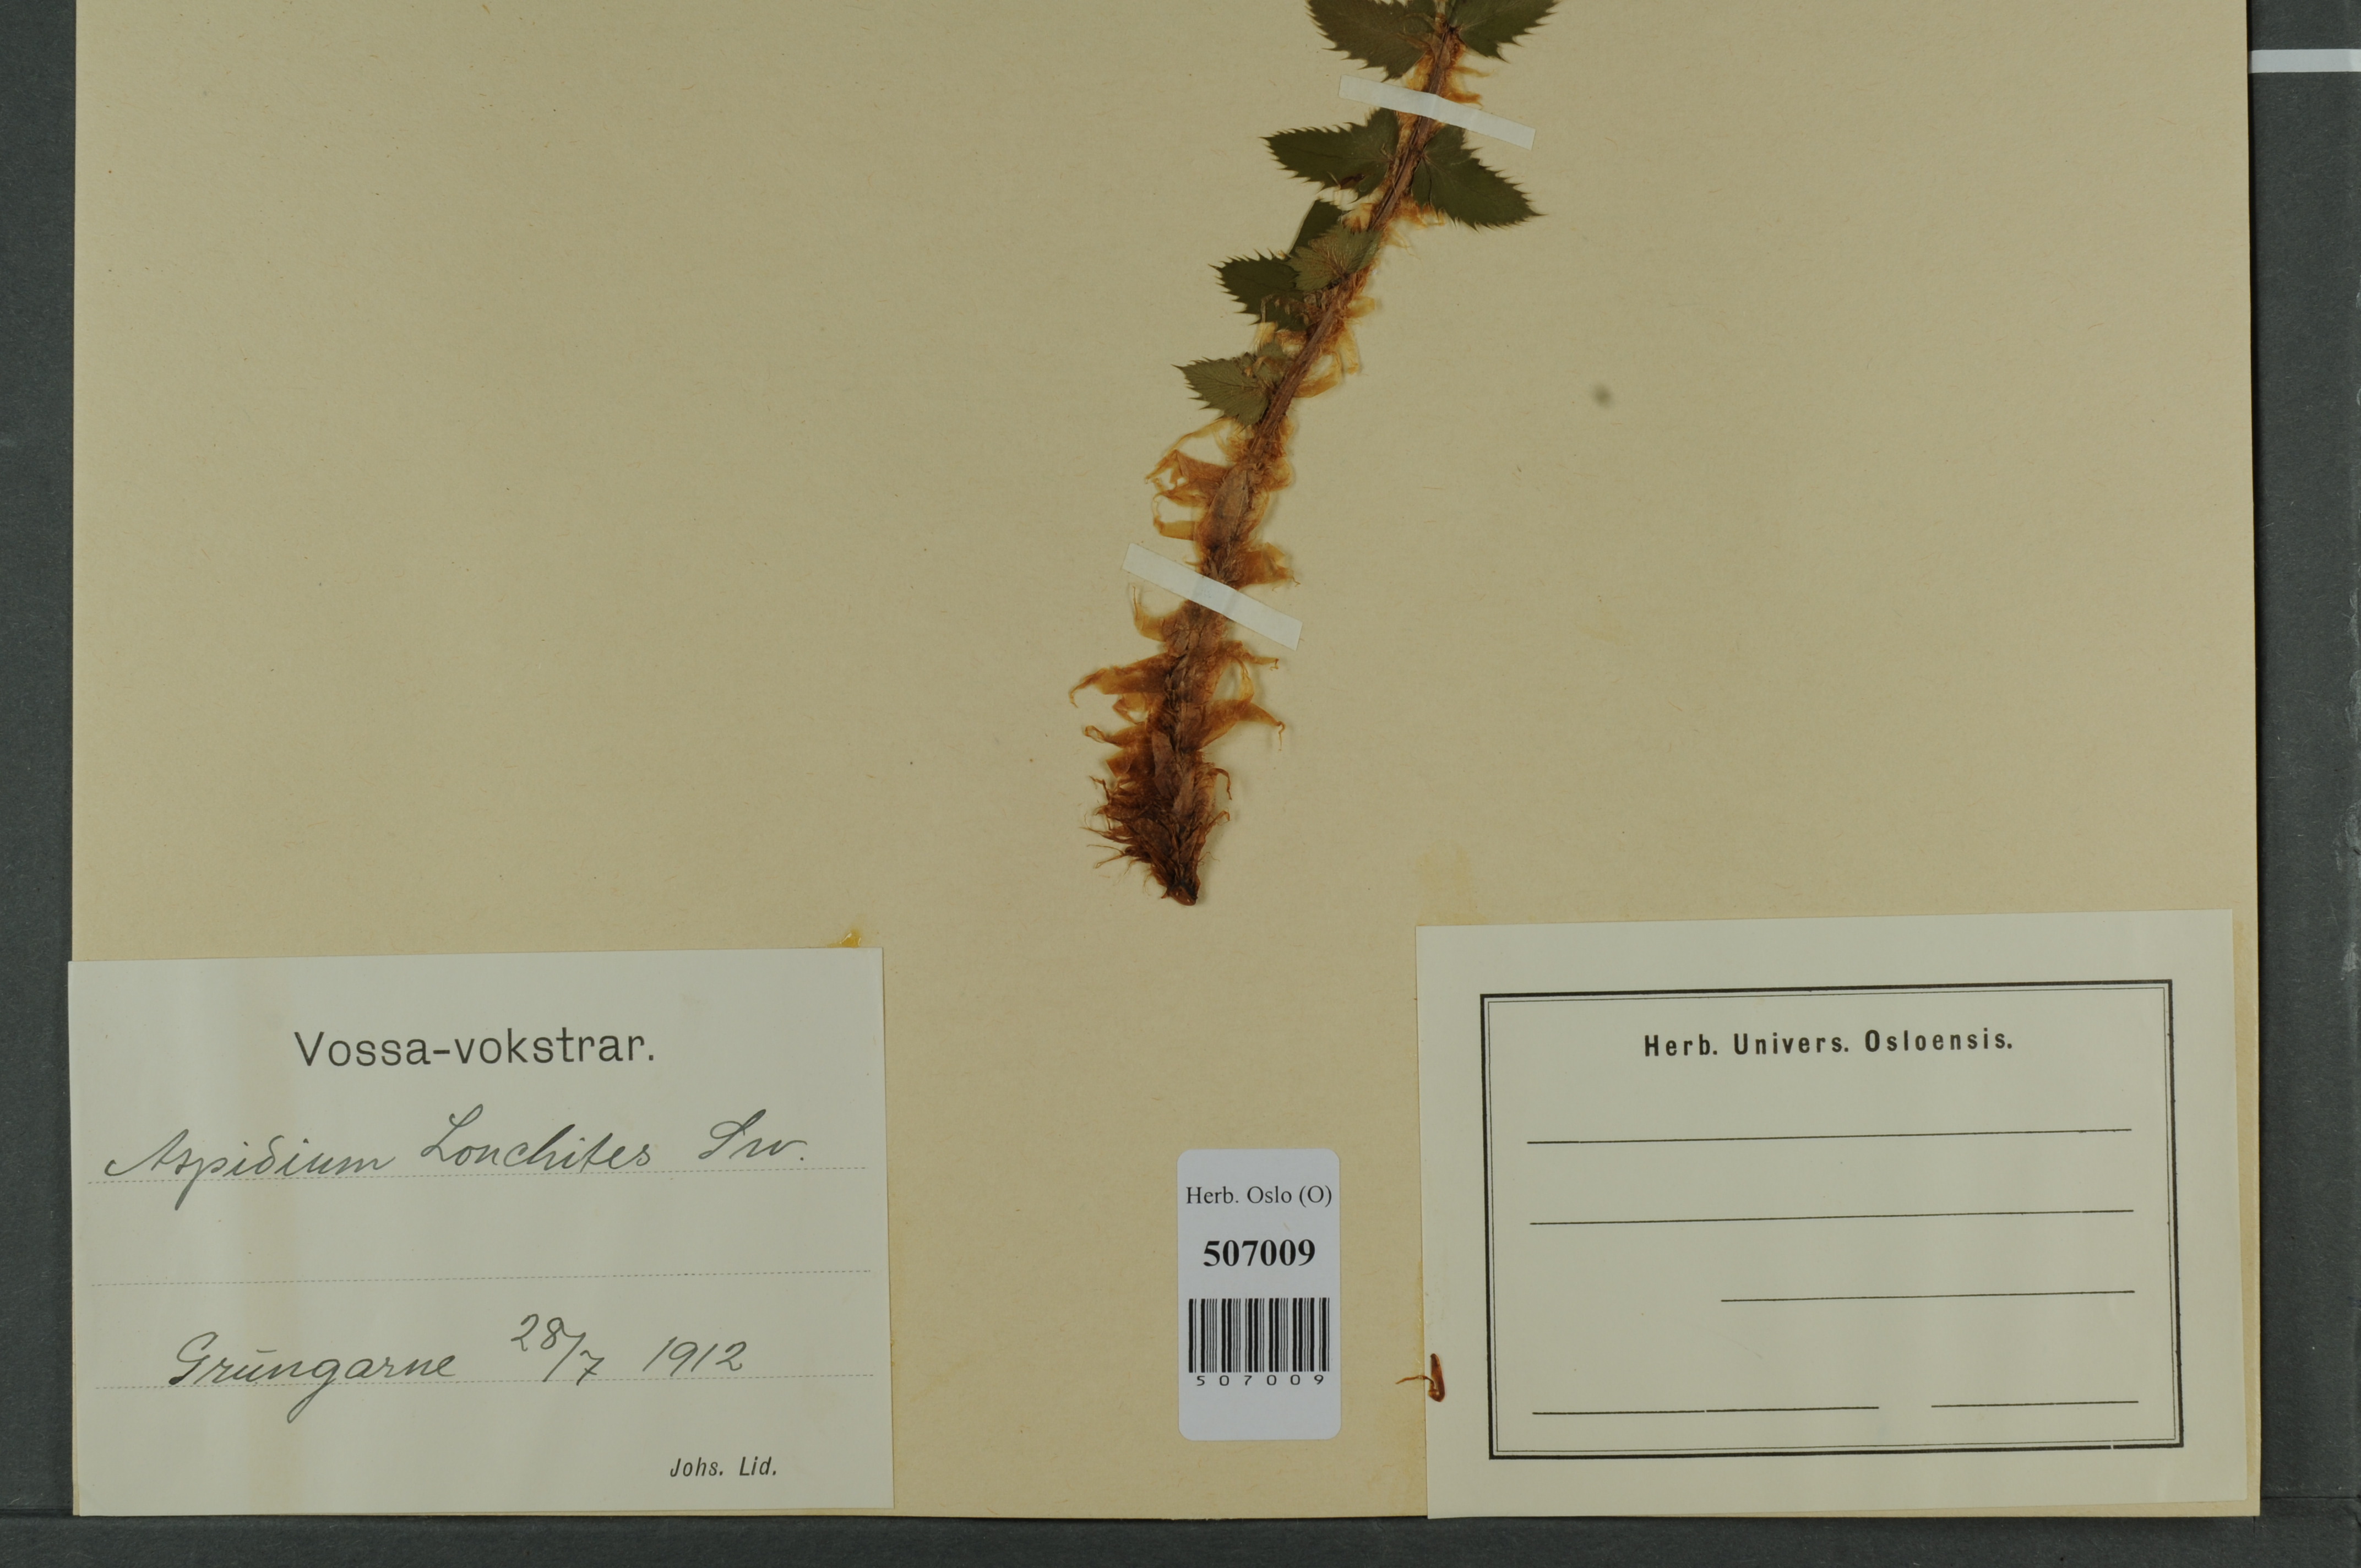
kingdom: Plantae
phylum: Tracheophyta
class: Polypodiopsida
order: Polypodiales
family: Dryopteridaceae
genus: Polystichum
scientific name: Polystichum lonchitis
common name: Holly fern
